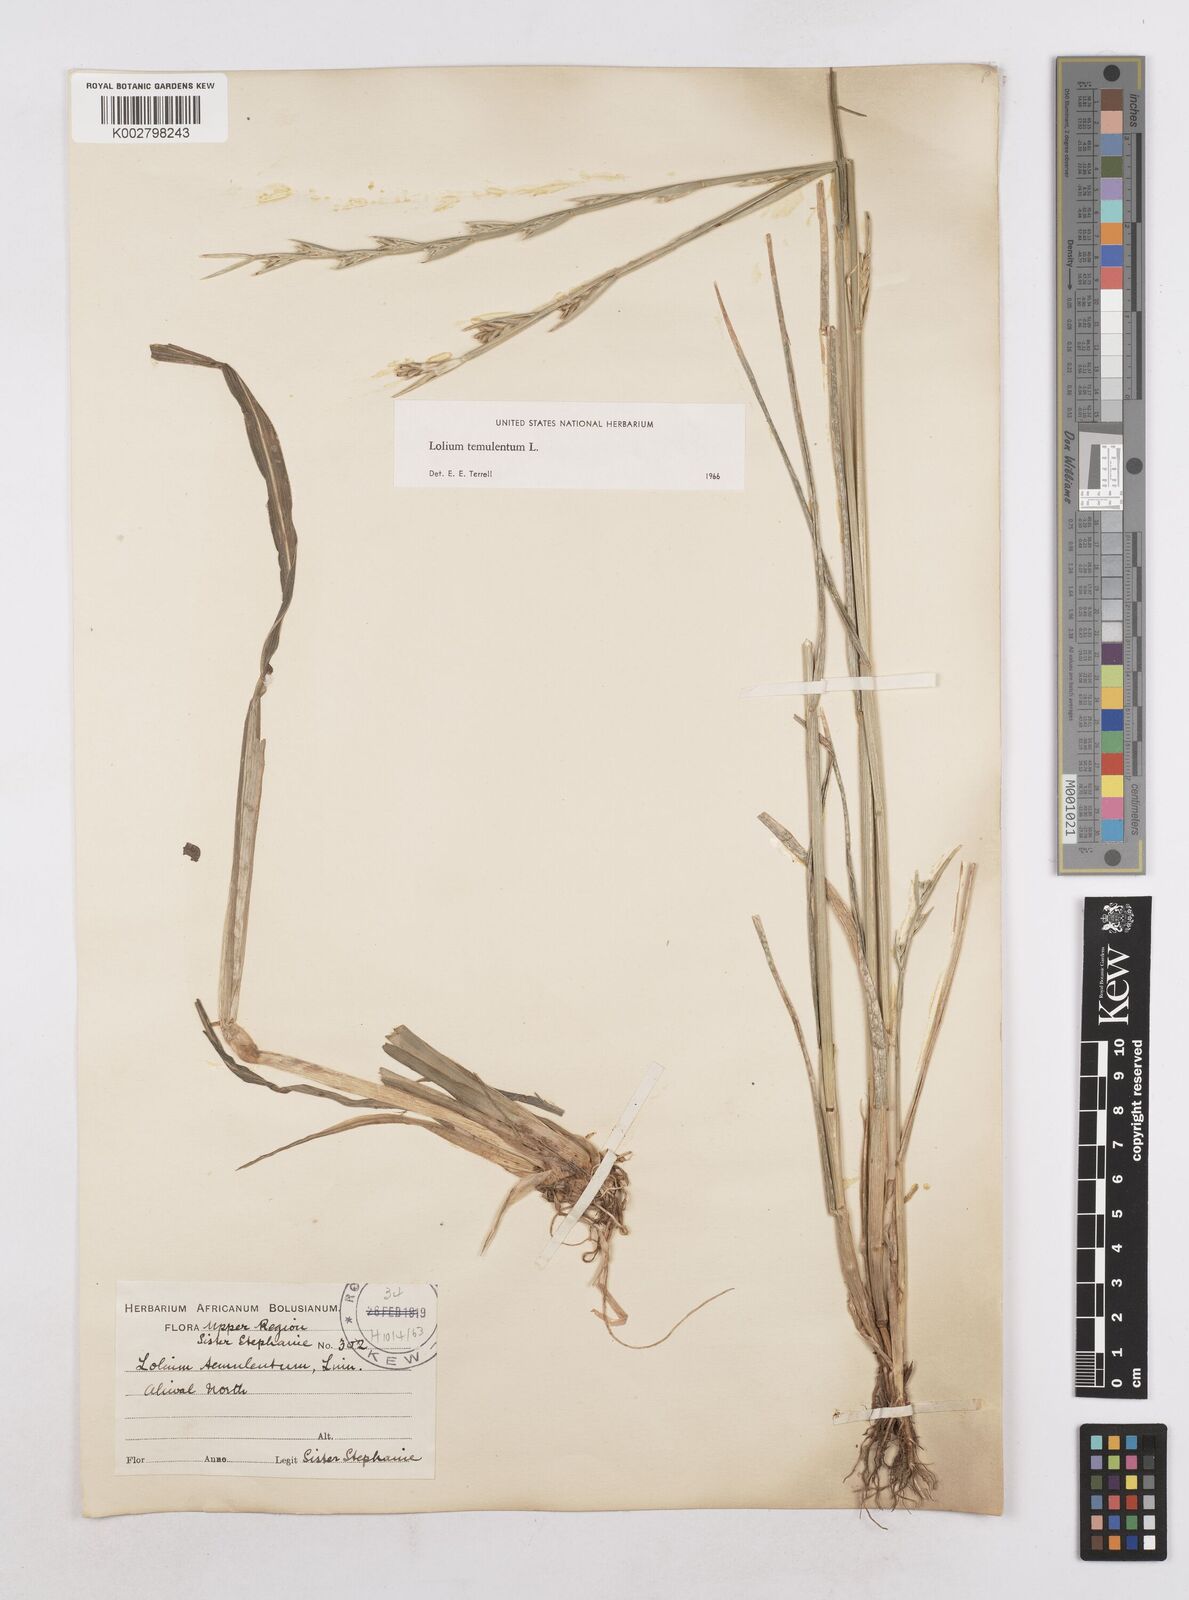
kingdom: Plantae
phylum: Tracheophyta
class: Liliopsida
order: Poales
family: Poaceae
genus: Lolium
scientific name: Lolium temulentum
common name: Darnel
